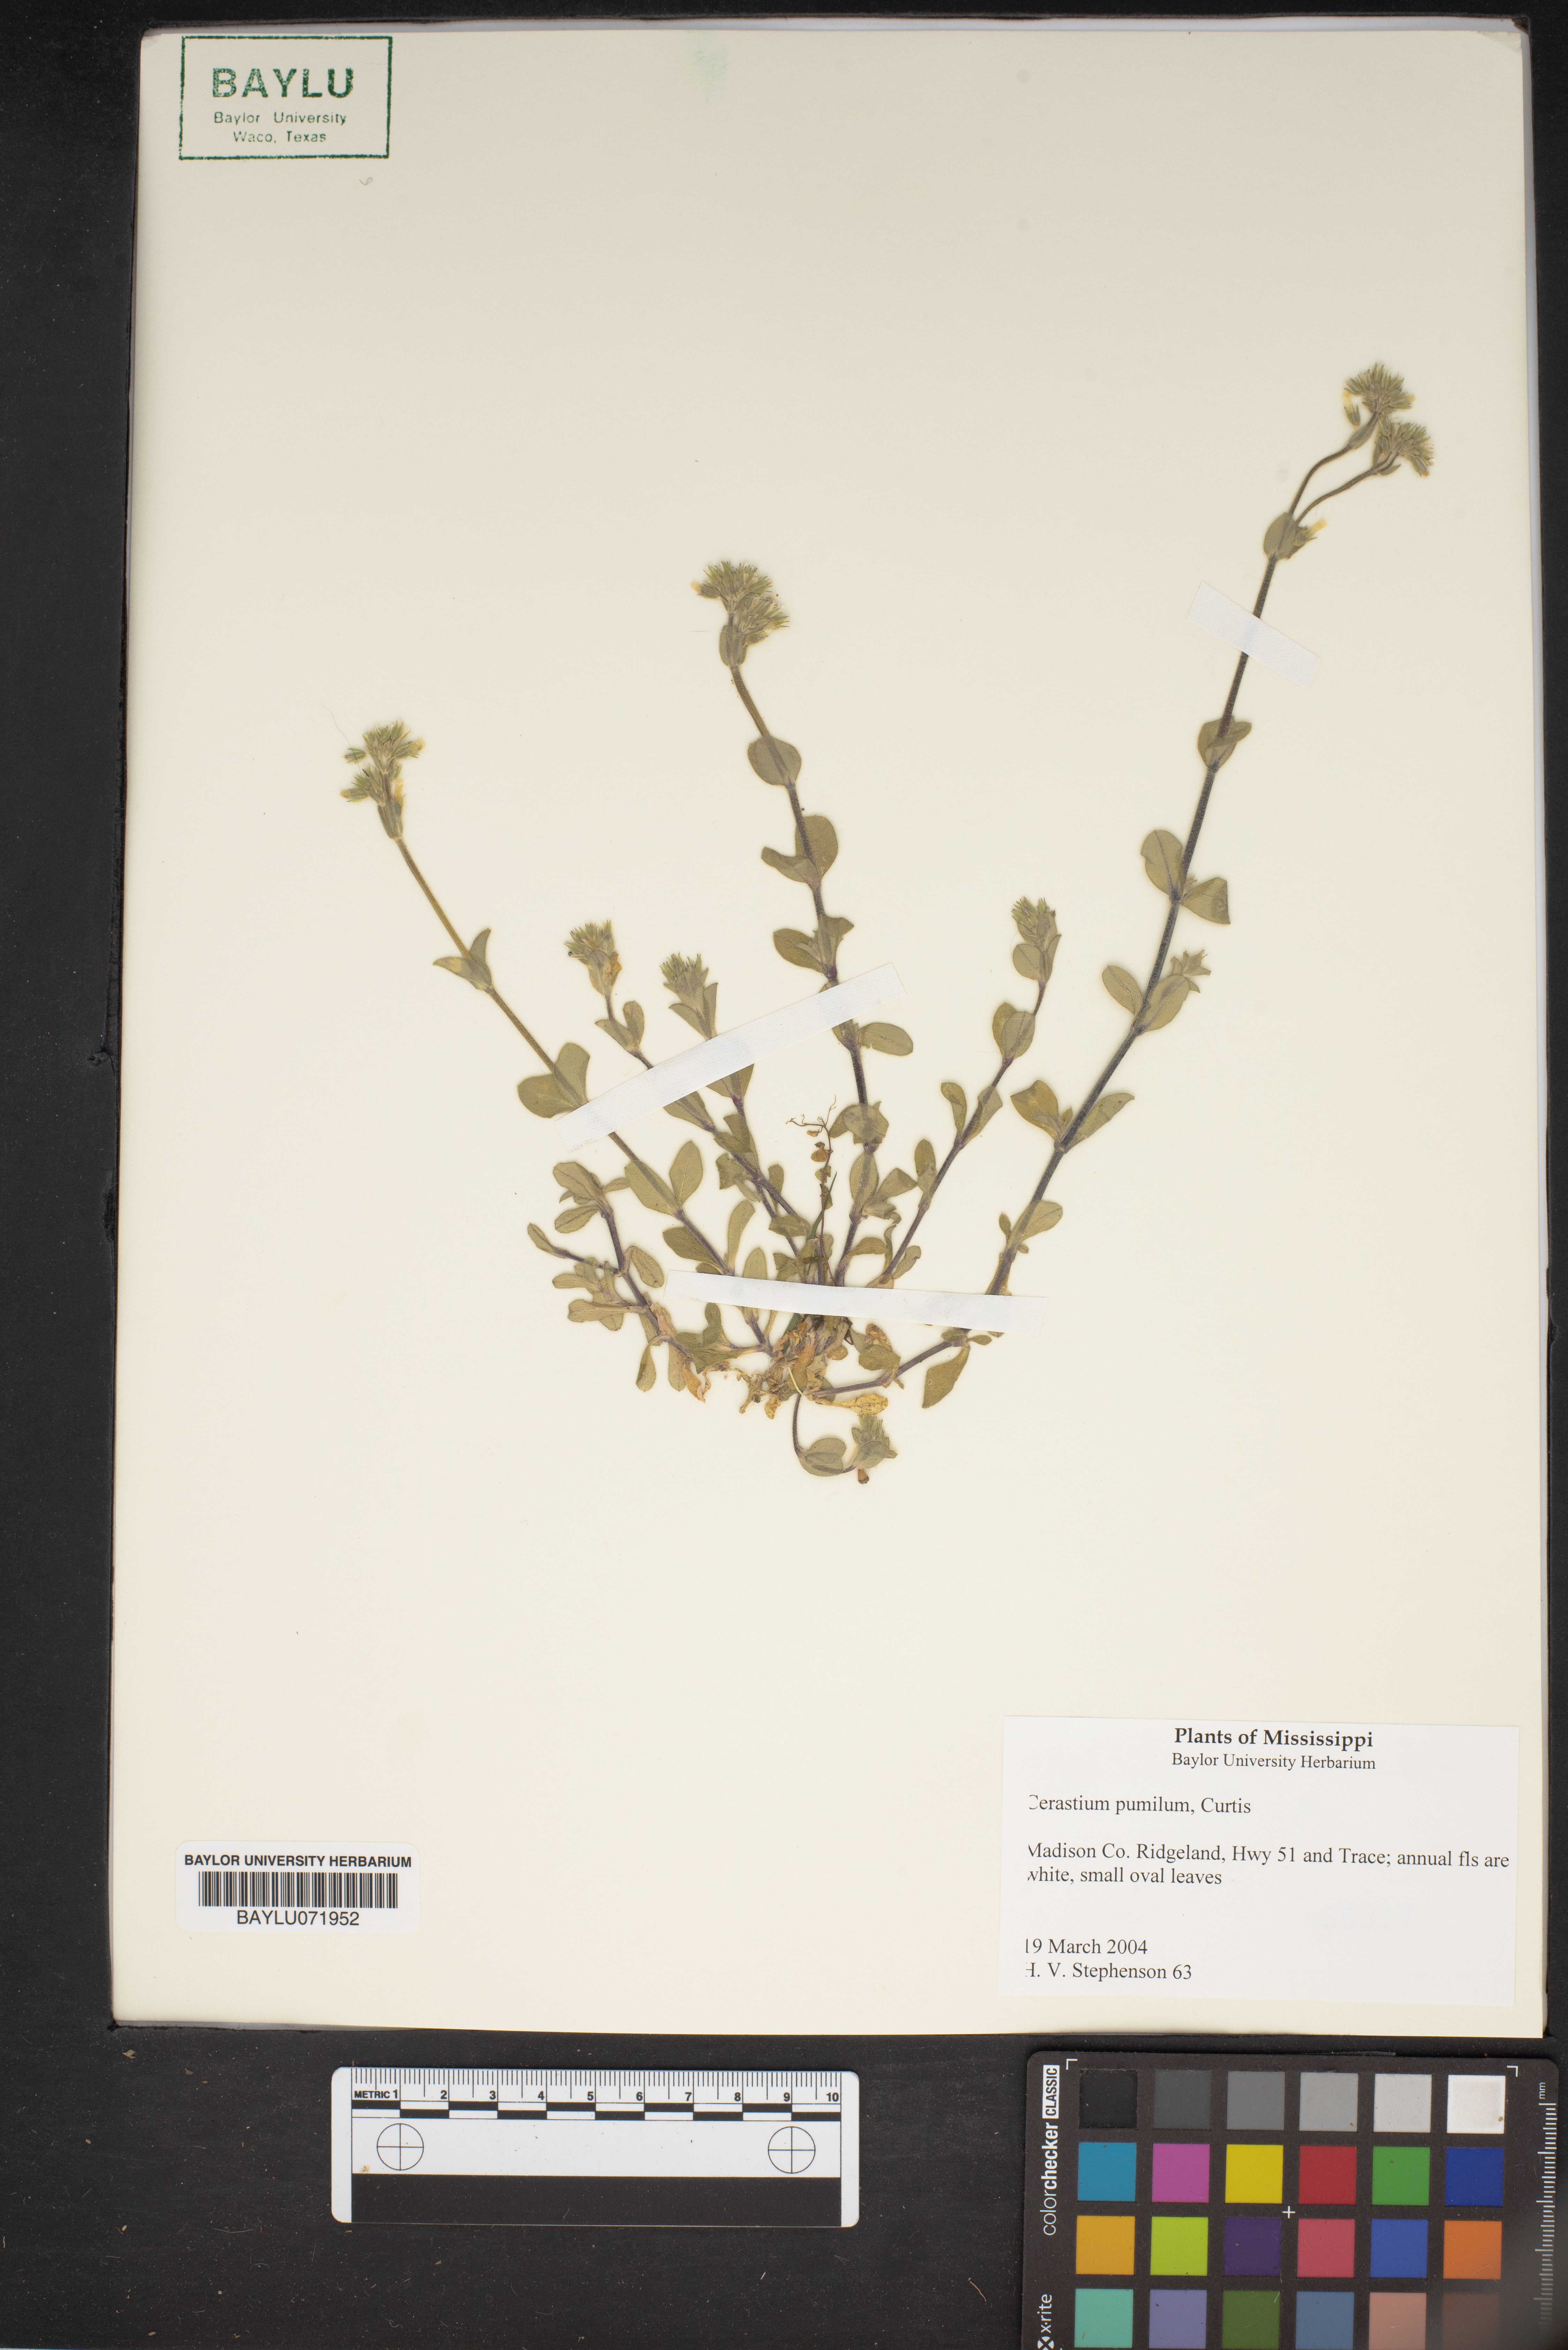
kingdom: Plantae
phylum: Tracheophyta
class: Magnoliopsida
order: Caryophyllales
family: Caryophyllaceae
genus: Cerastium
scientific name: Cerastium pumilum
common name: Dwarf mouse-ear
